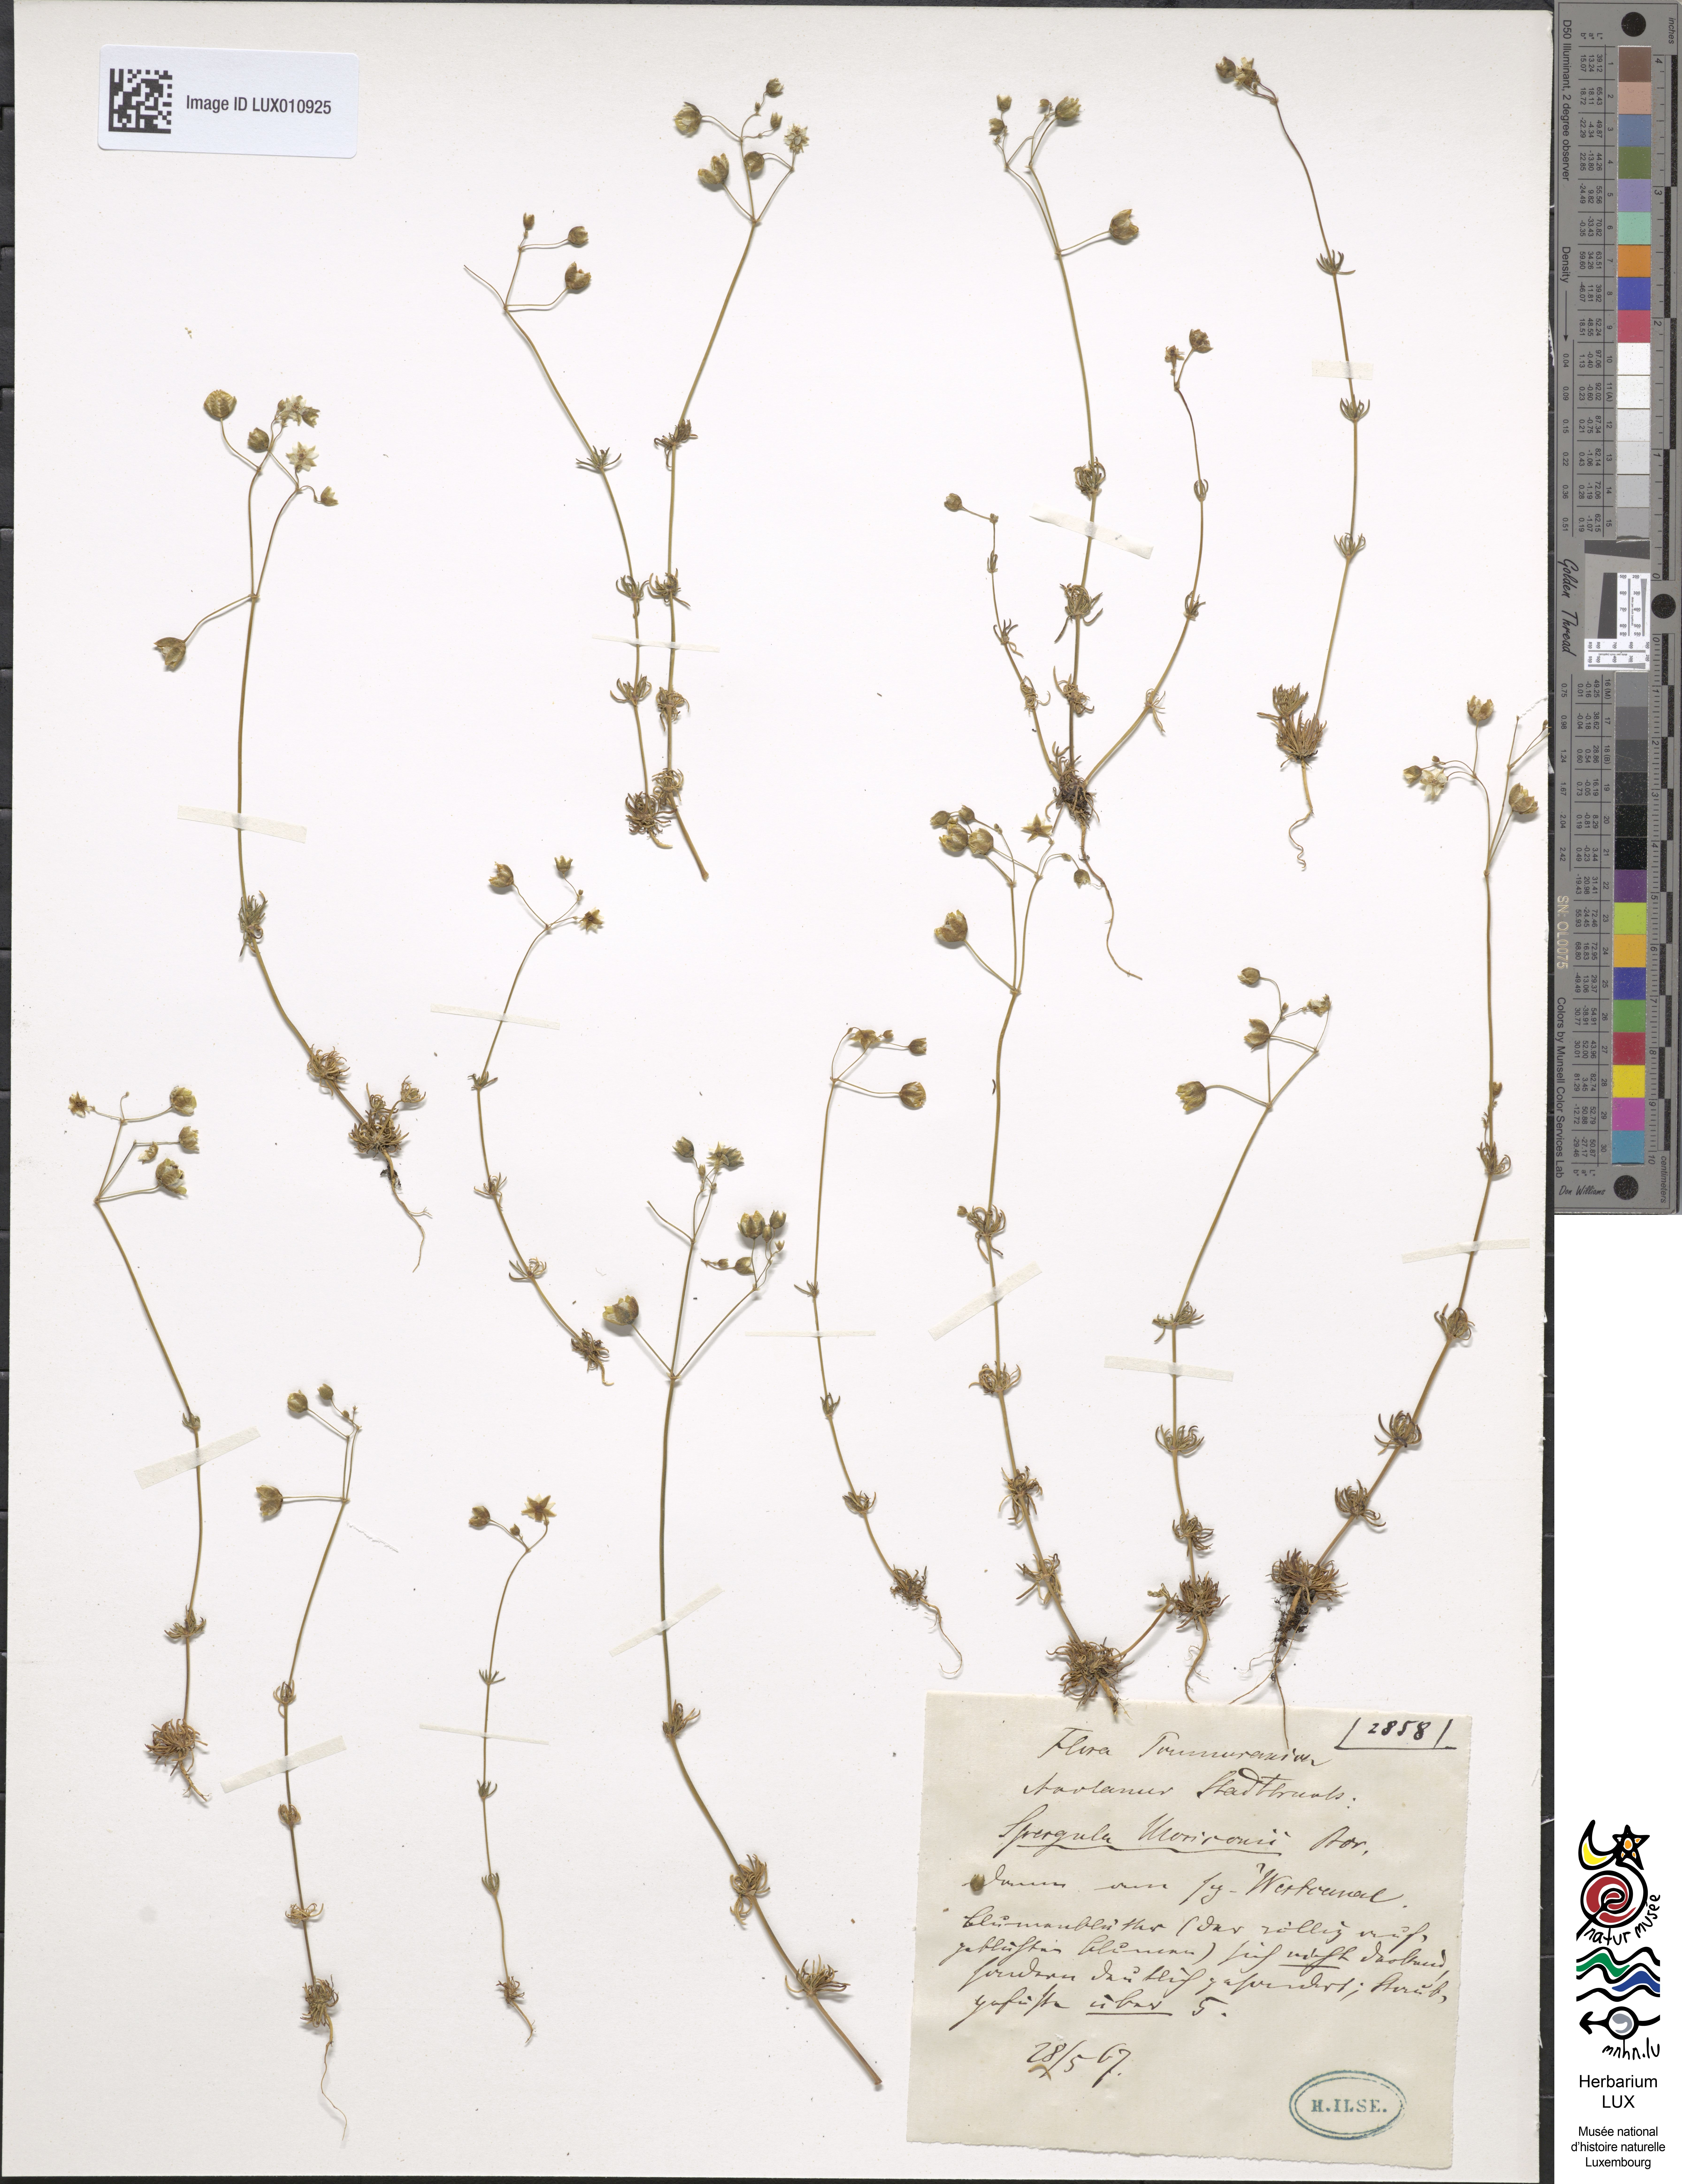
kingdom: Plantae
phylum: Tracheophyta
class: Magnoliopsida
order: Caryophyllales
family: Caryophyllaceae
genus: Spergula
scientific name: Spergula morisonii
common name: Pearlwort spurrey
